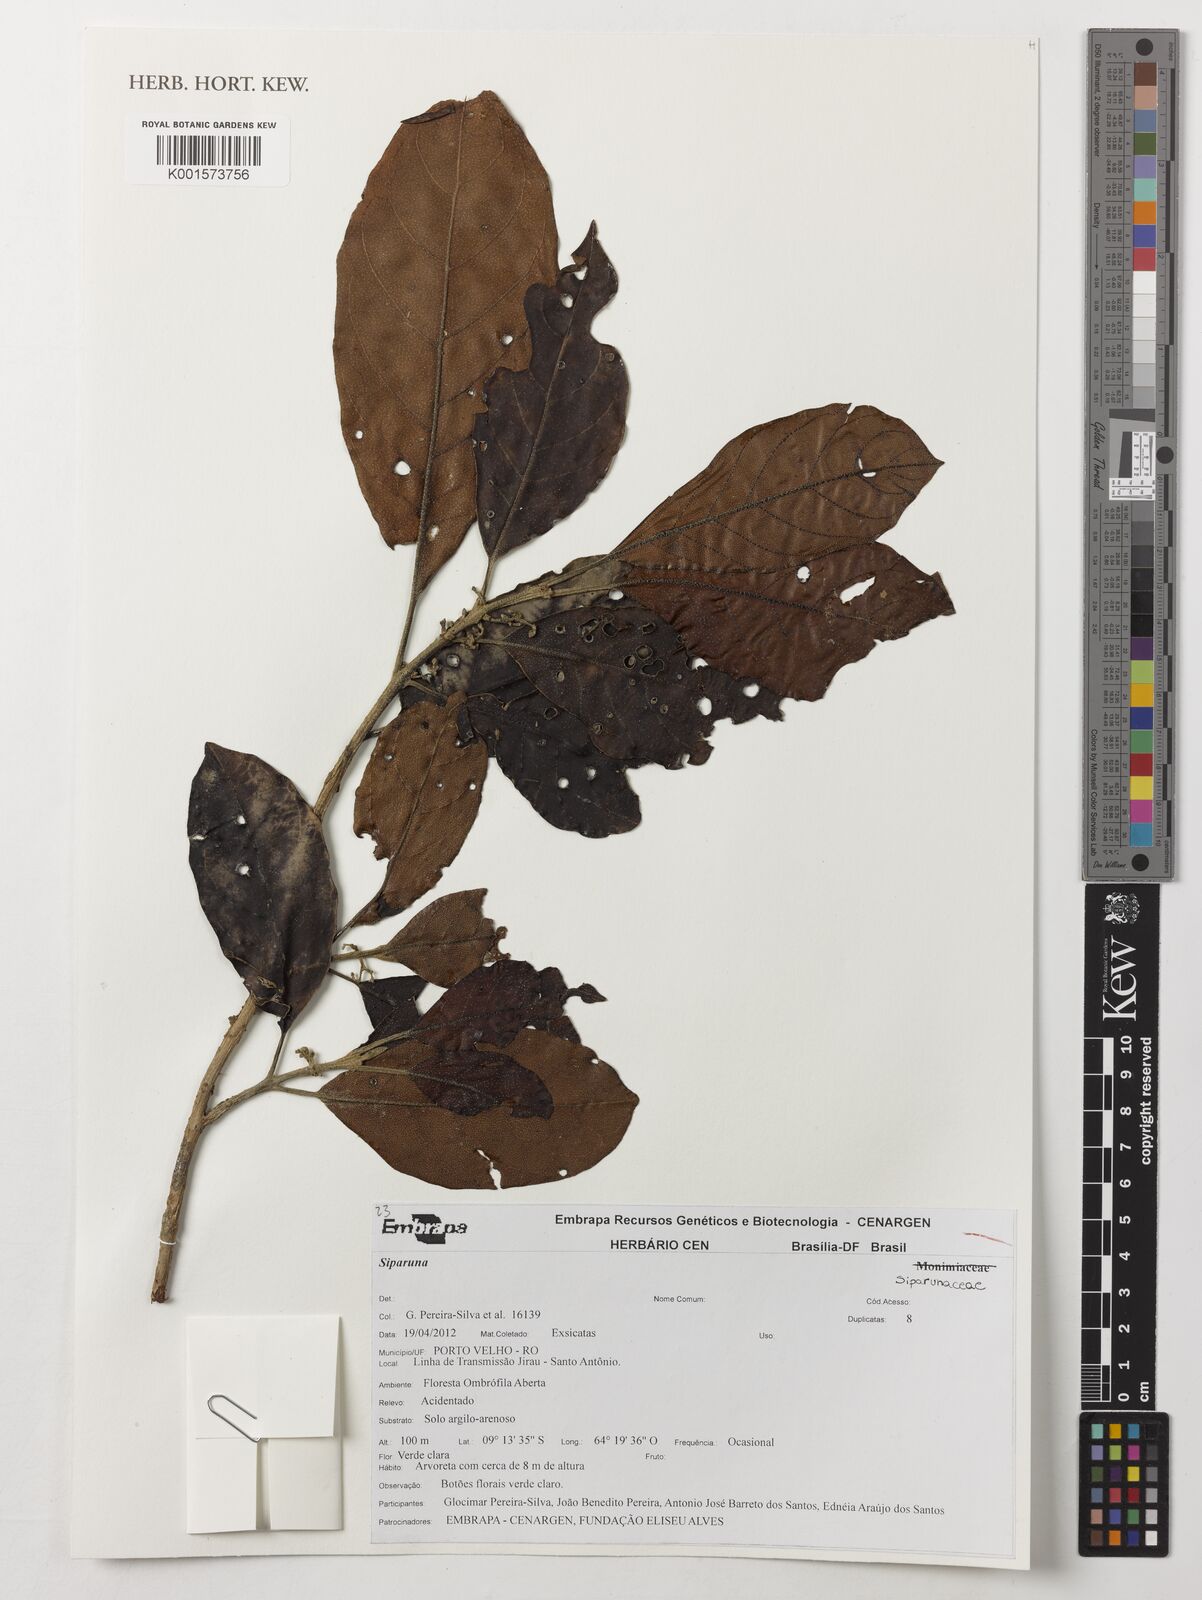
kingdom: Plantae
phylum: Tracheophyta
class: Magnoliopsida
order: Laurales
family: Siparunaceae
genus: Siparuna
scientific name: Siparuna
